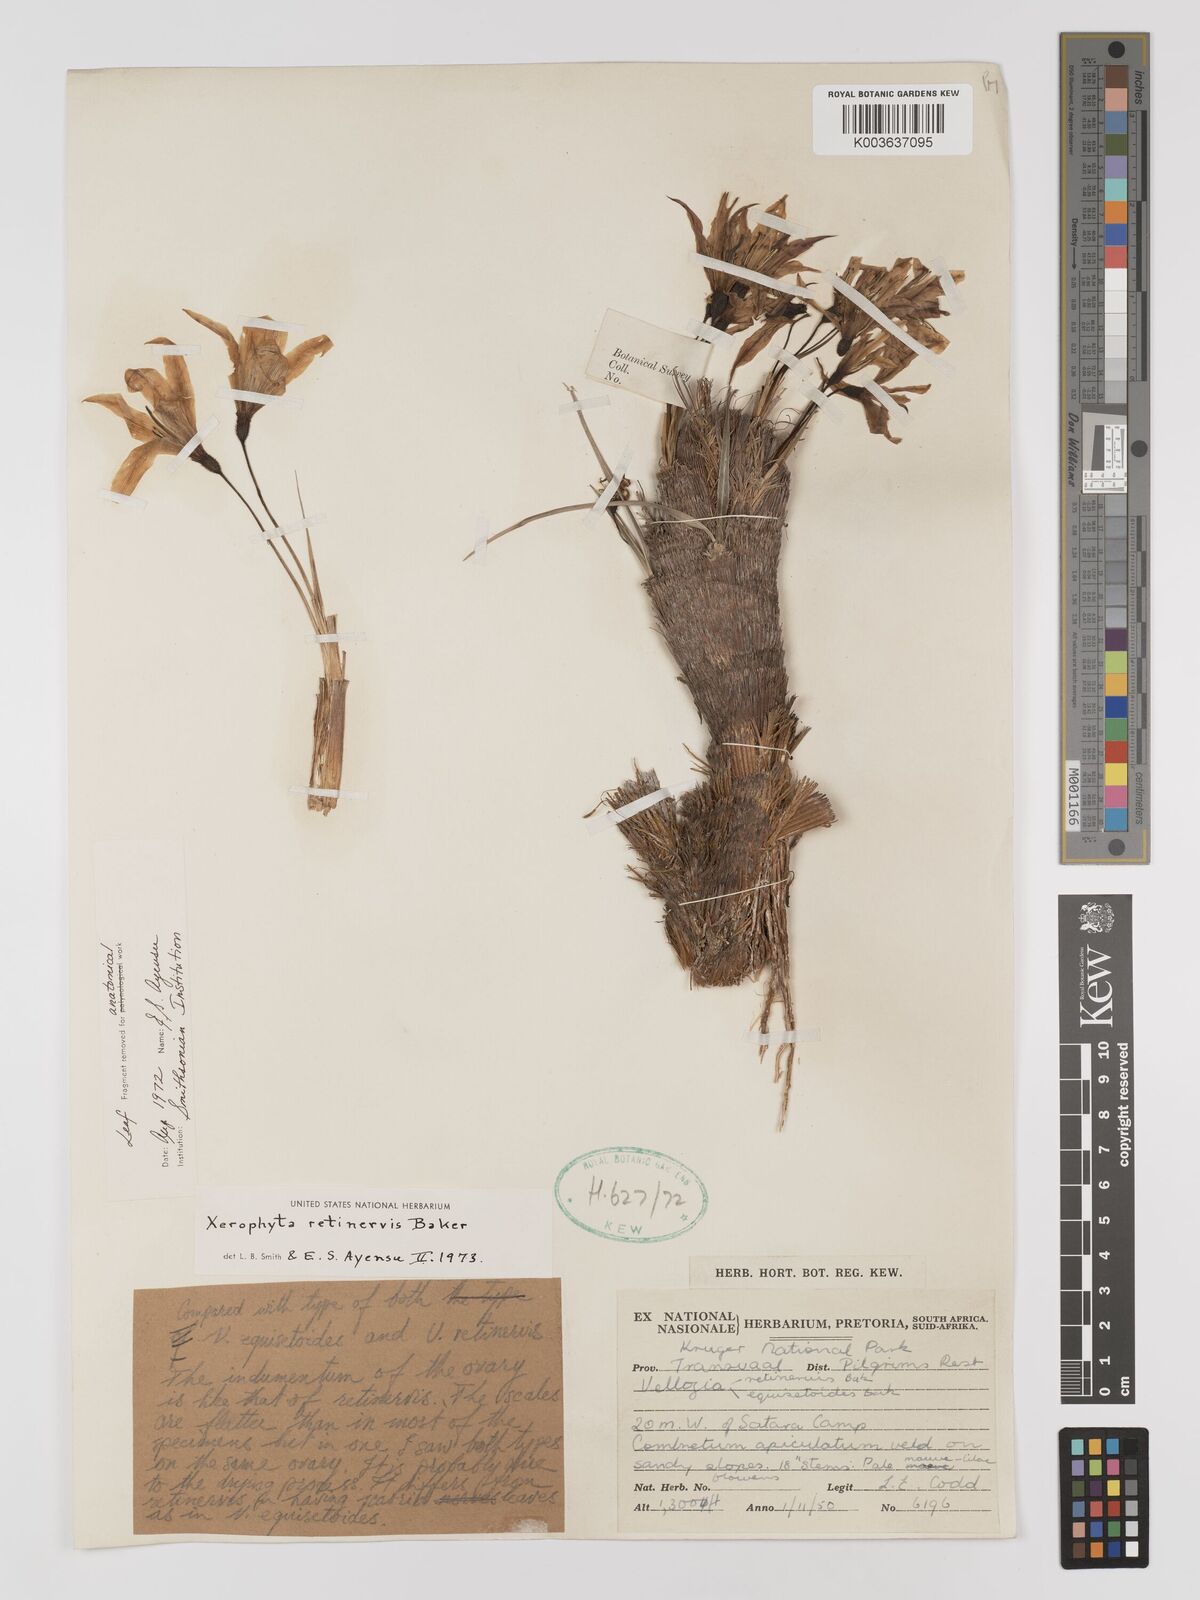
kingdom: Plantae
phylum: Tracheophyta
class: Liliopsida
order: Pandanales
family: Velloziaceae
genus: Xerophyta
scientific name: Xerophyta retinervis
